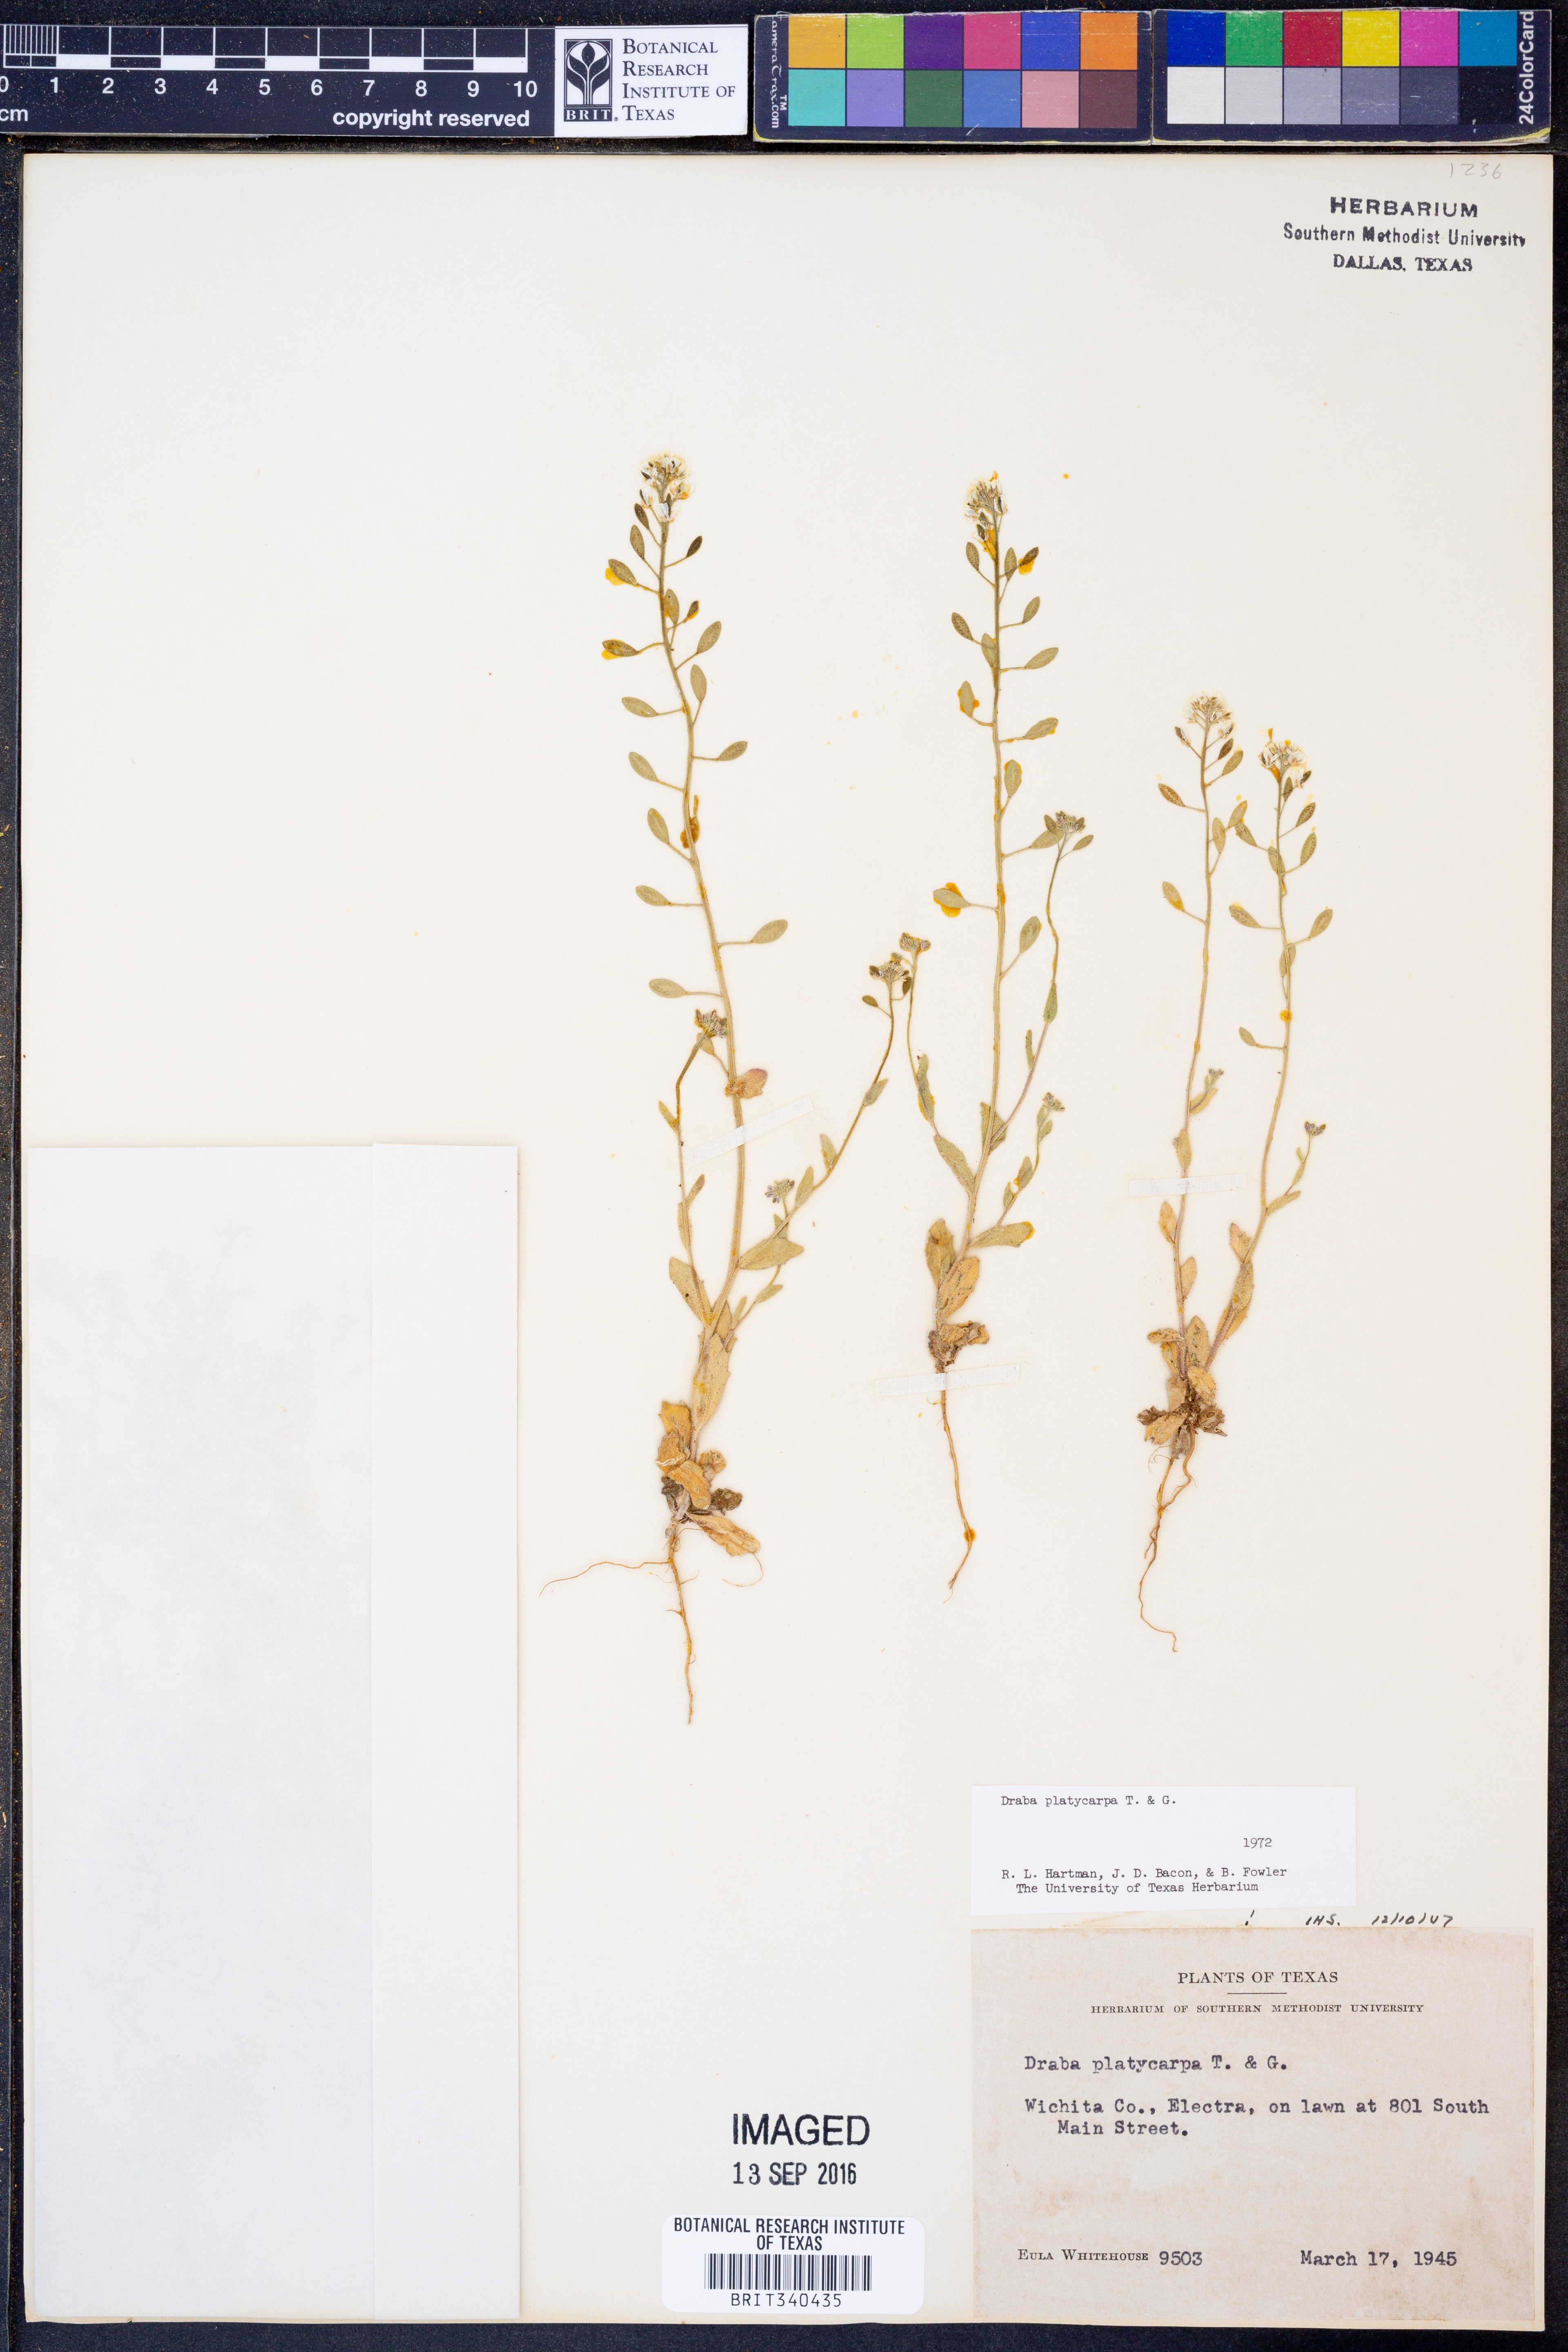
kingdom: Plantae
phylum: Tracheophyta
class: Magnoliopsida
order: Brassicales
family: Brassicaceae
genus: Tomostima
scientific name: Tomostima platycarpa
